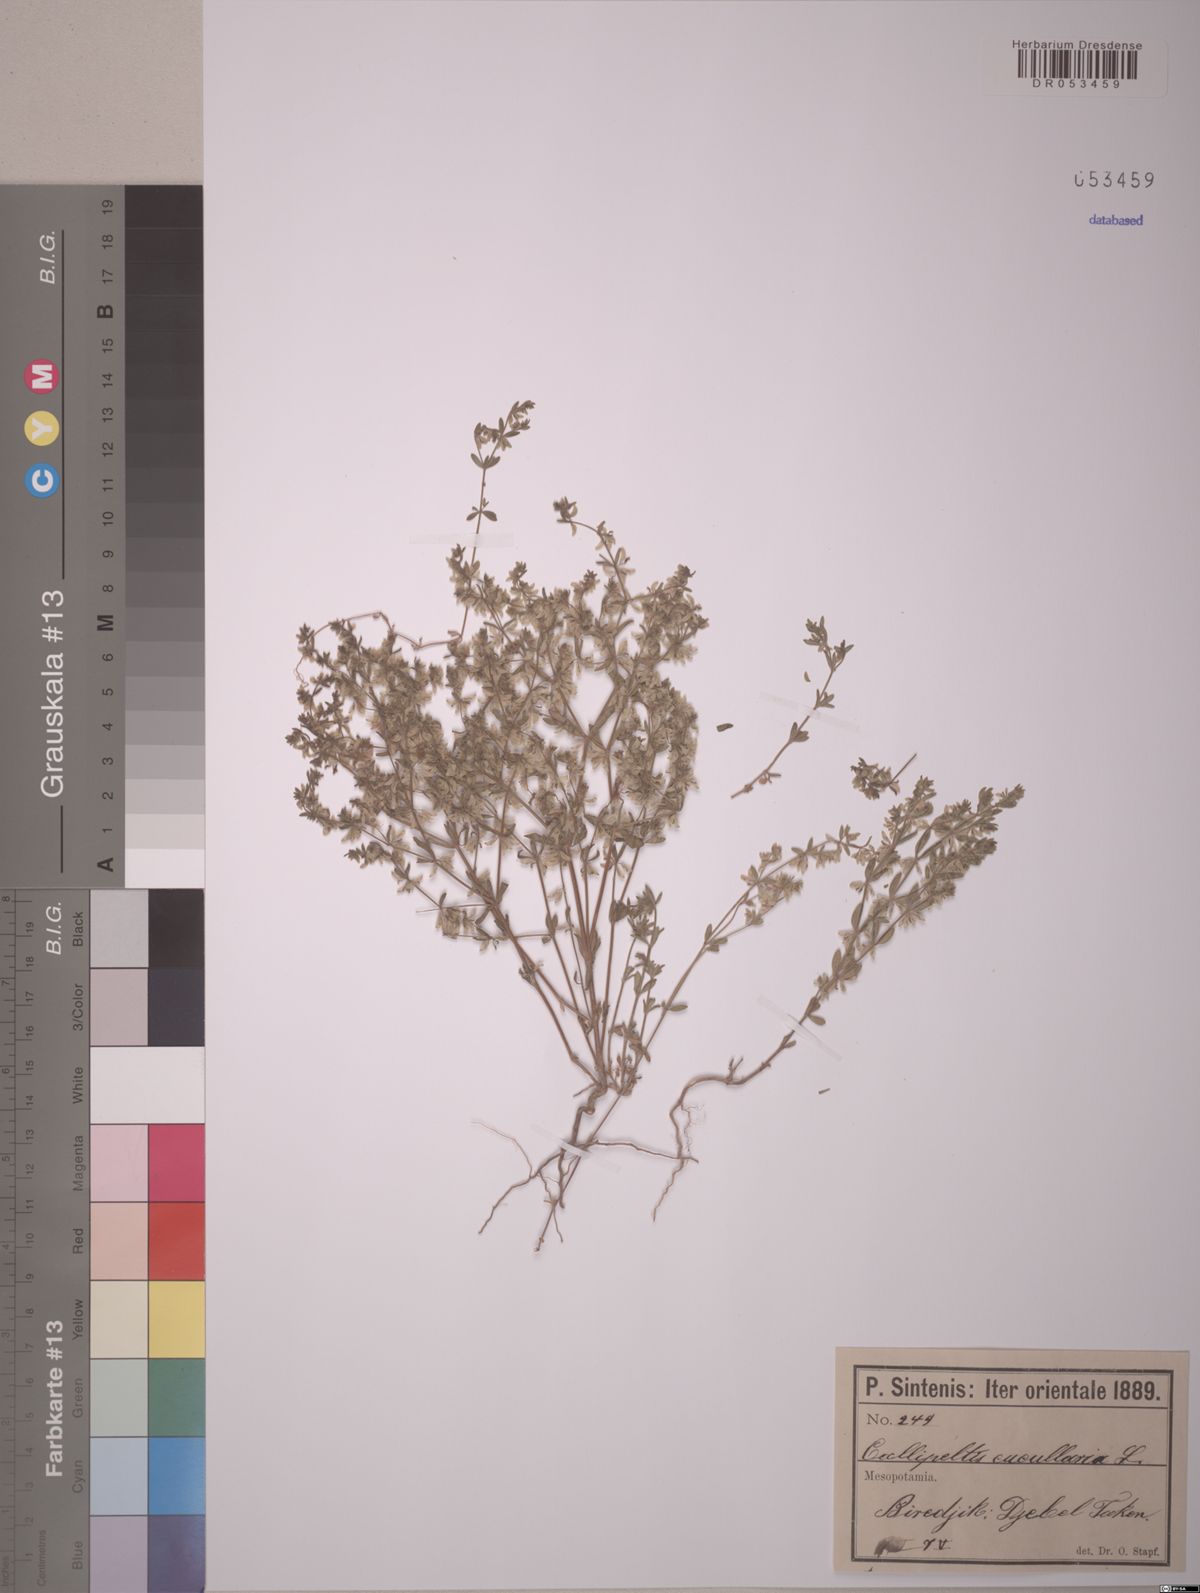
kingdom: Plantae
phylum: Tracheophyta
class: Magnoliopsida
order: Gentianales
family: Rubiaceae
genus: Callipeltis
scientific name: Callipeltis cucullaris
